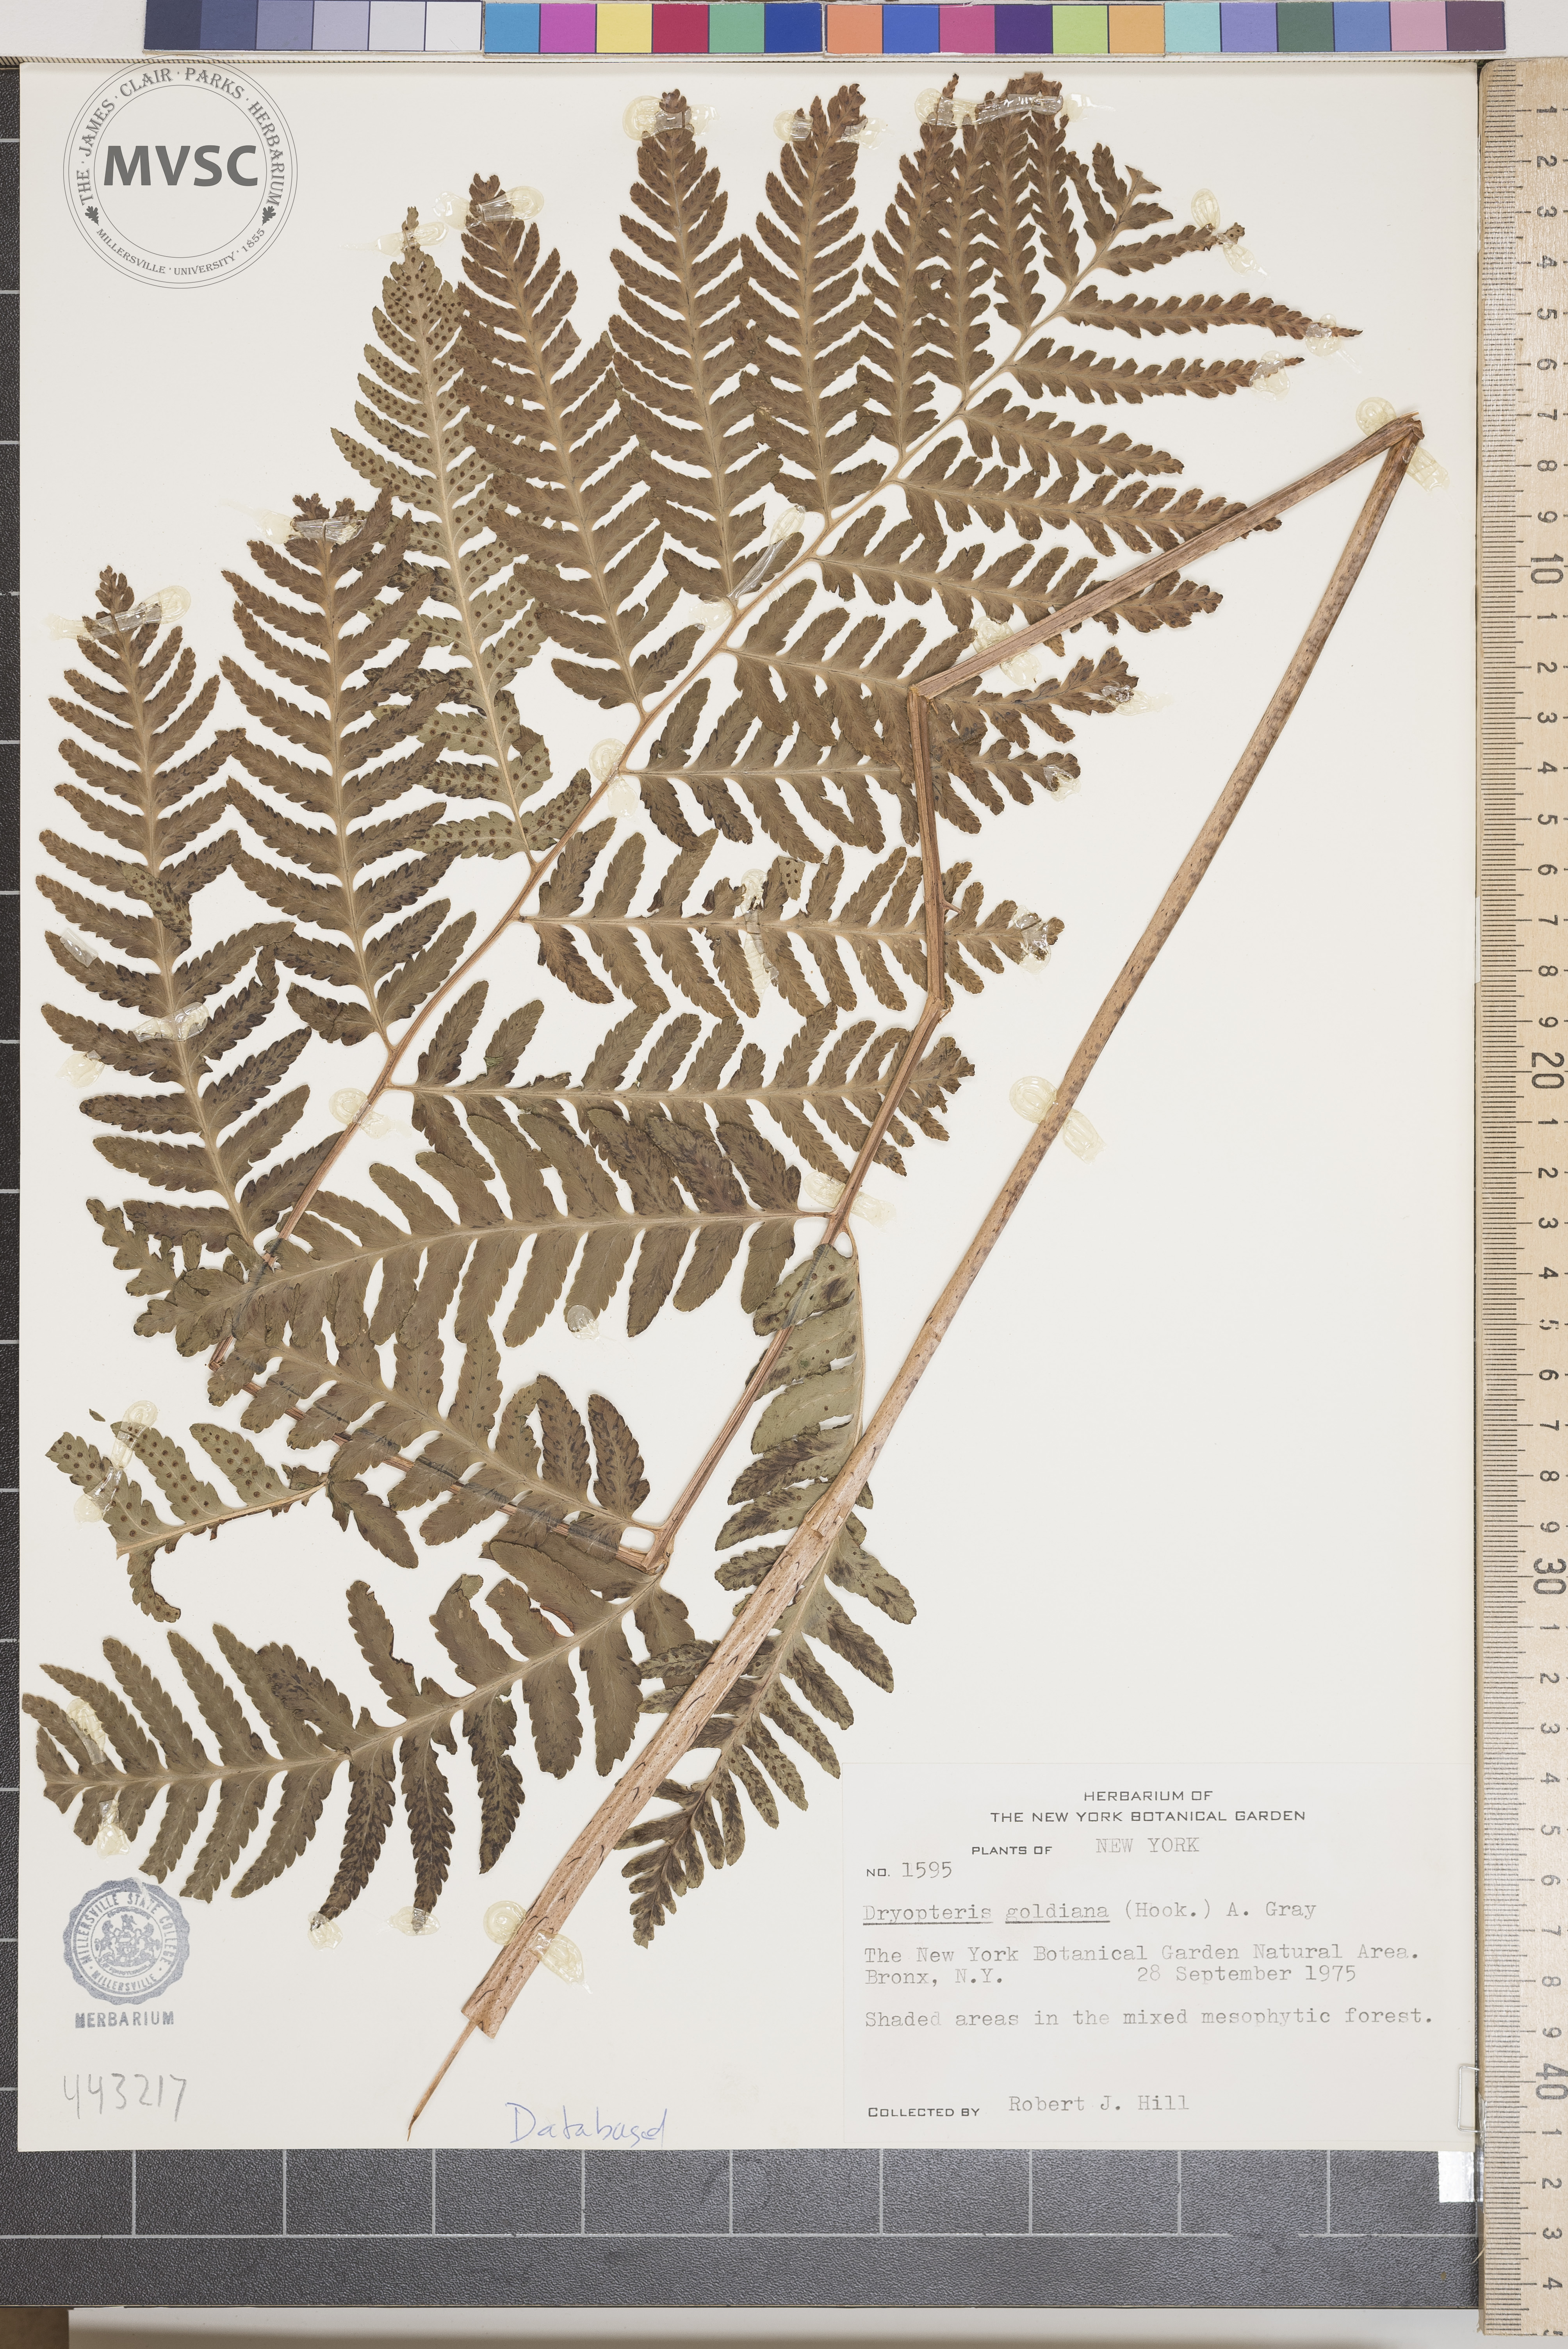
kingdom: Plantae
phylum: Tracheophyta
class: Polypodiopsida
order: Polypodiales
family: Dryopteridaceae
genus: Dryopteris
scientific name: Dryopteris goeldiana
